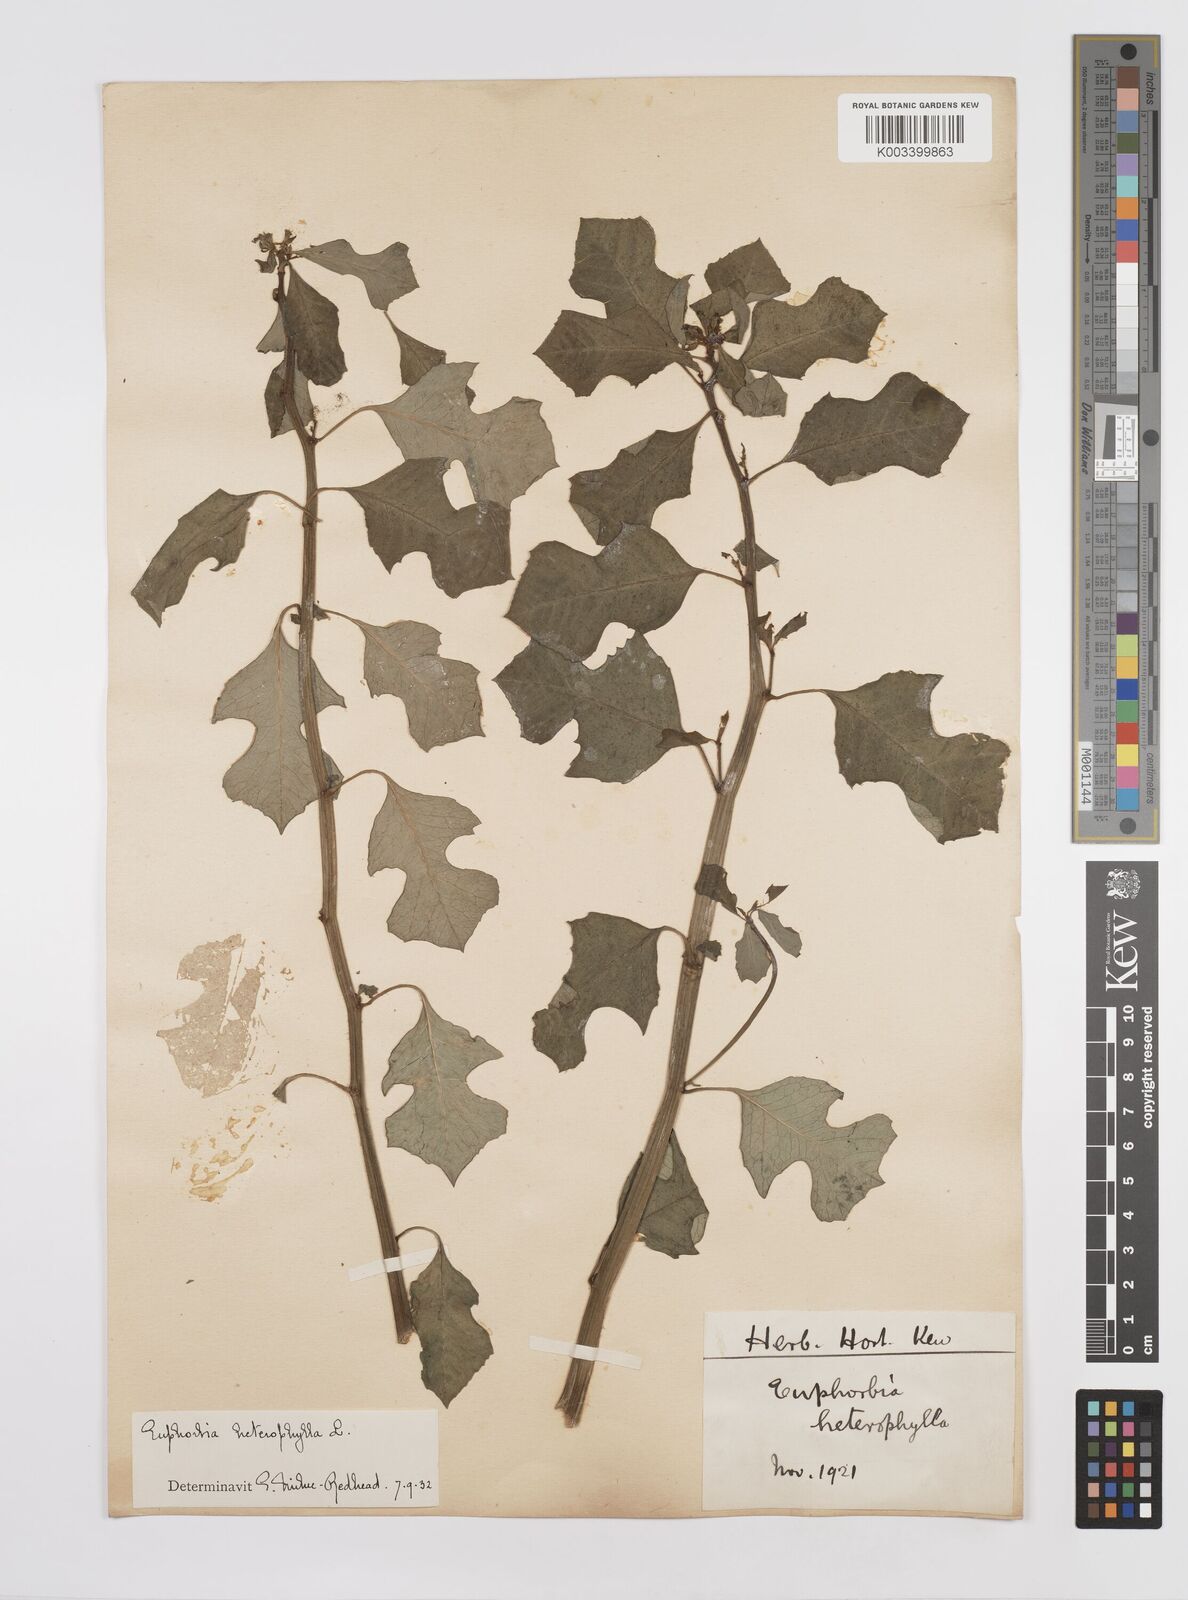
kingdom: Plantae
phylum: Tracheophyta
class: Magnoliopsida
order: Malpighiales
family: Euphorbiaceae
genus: Euphorbia
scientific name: Euphorbia heterophylla
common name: Mexican fireplant
